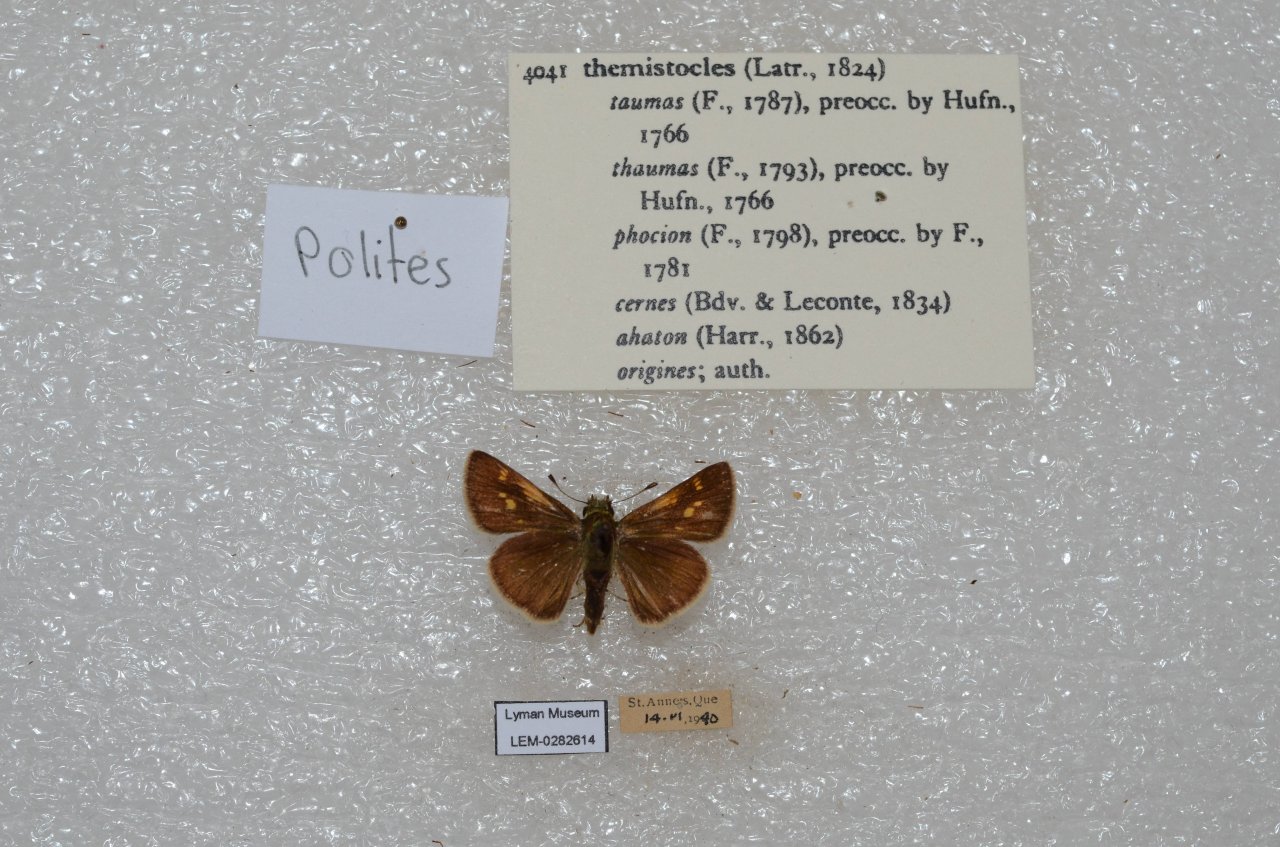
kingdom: Animalia
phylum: Arthropoda
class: Insecta
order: Lepidoptera
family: Hesperiidae
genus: Polites
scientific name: Polites themistocles
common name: Tawny-edged Skipper
